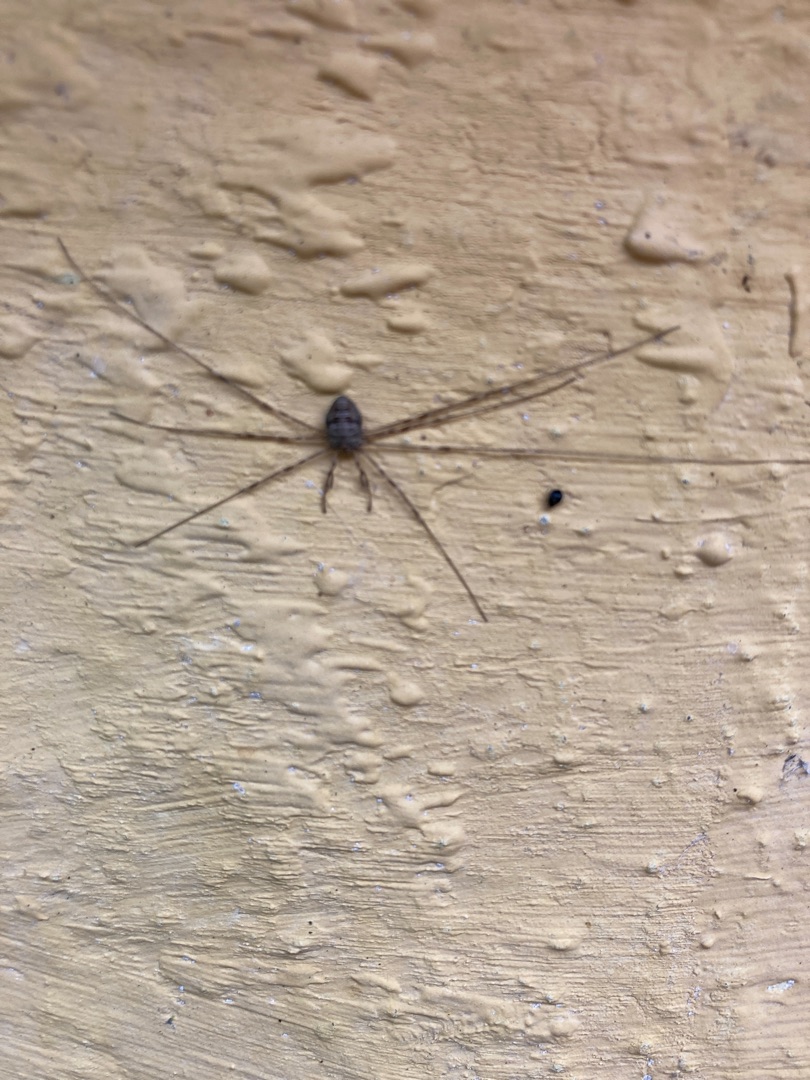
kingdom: Animalia
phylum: Arthropoda
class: Arachnida
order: Opiliones
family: Phalangiidae
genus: Dicranopalpus
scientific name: Dicranopalpus ramosus
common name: Gaffelmejer
